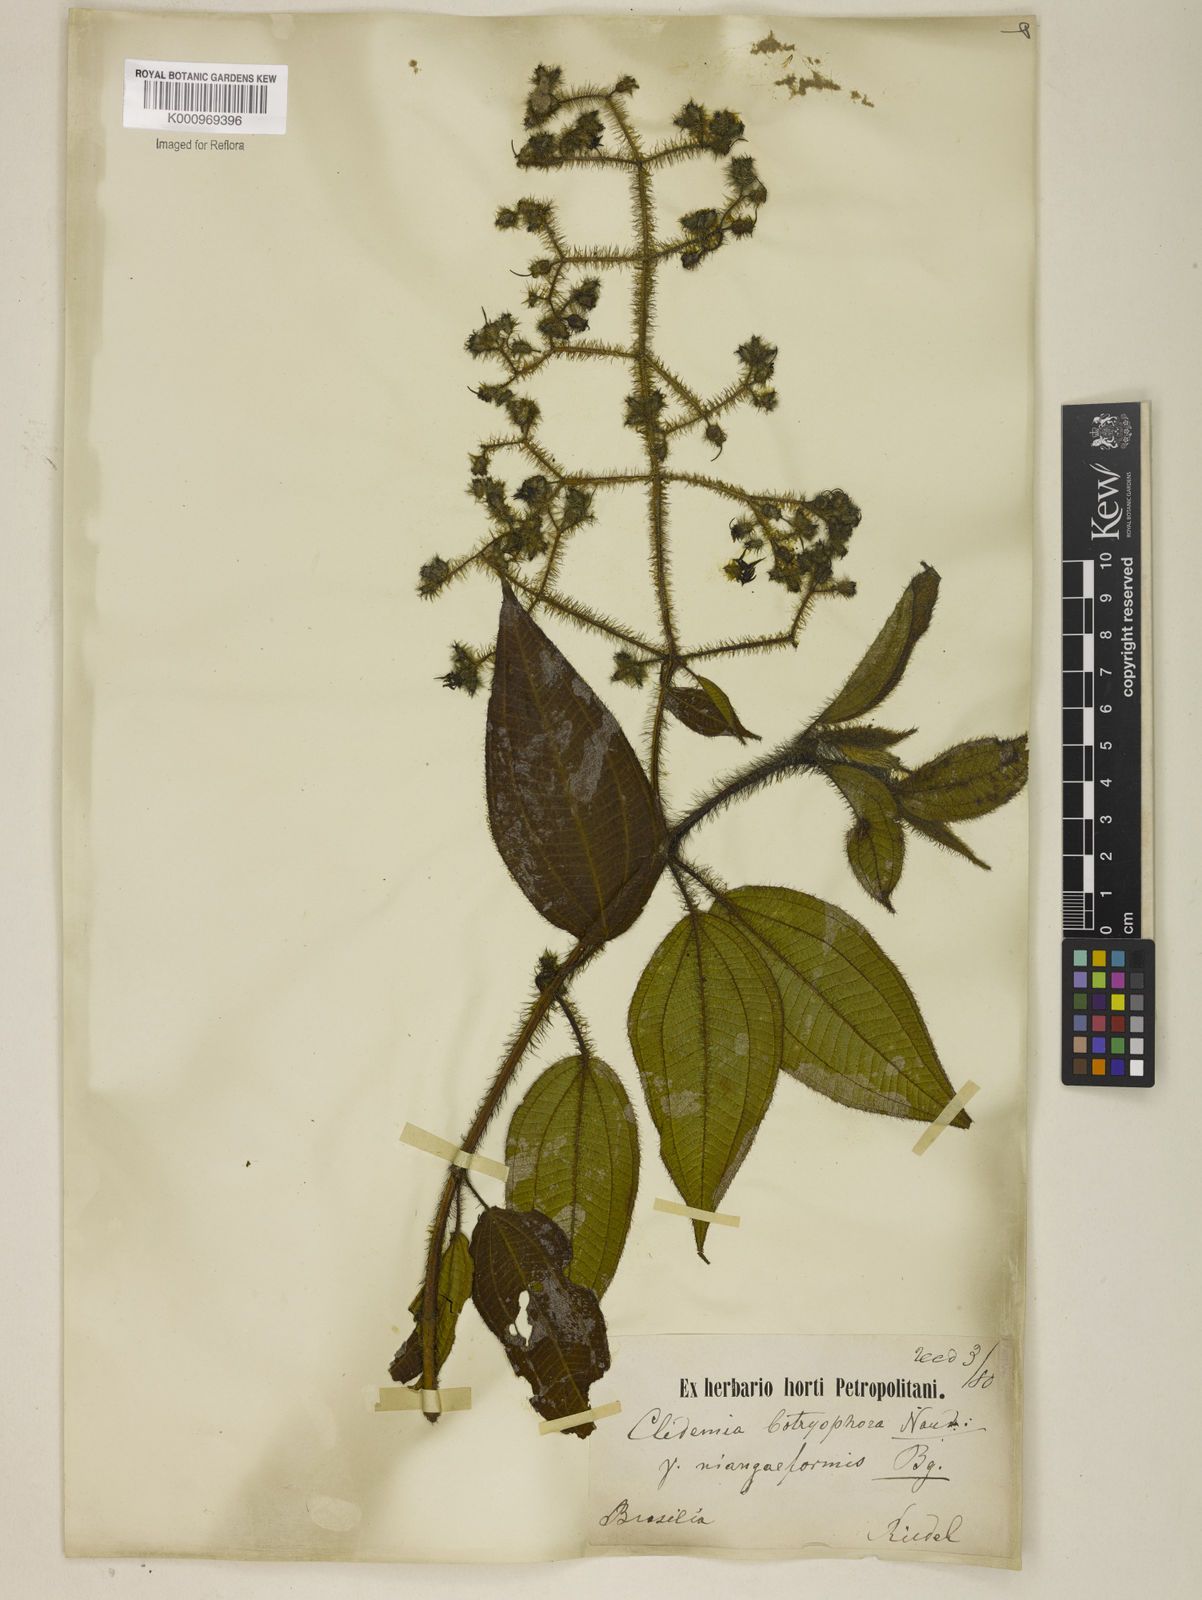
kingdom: Plantae
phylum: Tracheophyta
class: Magnoliopsida
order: Myrtales
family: Melastomataceae
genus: Miconia
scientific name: Miconia nianga
